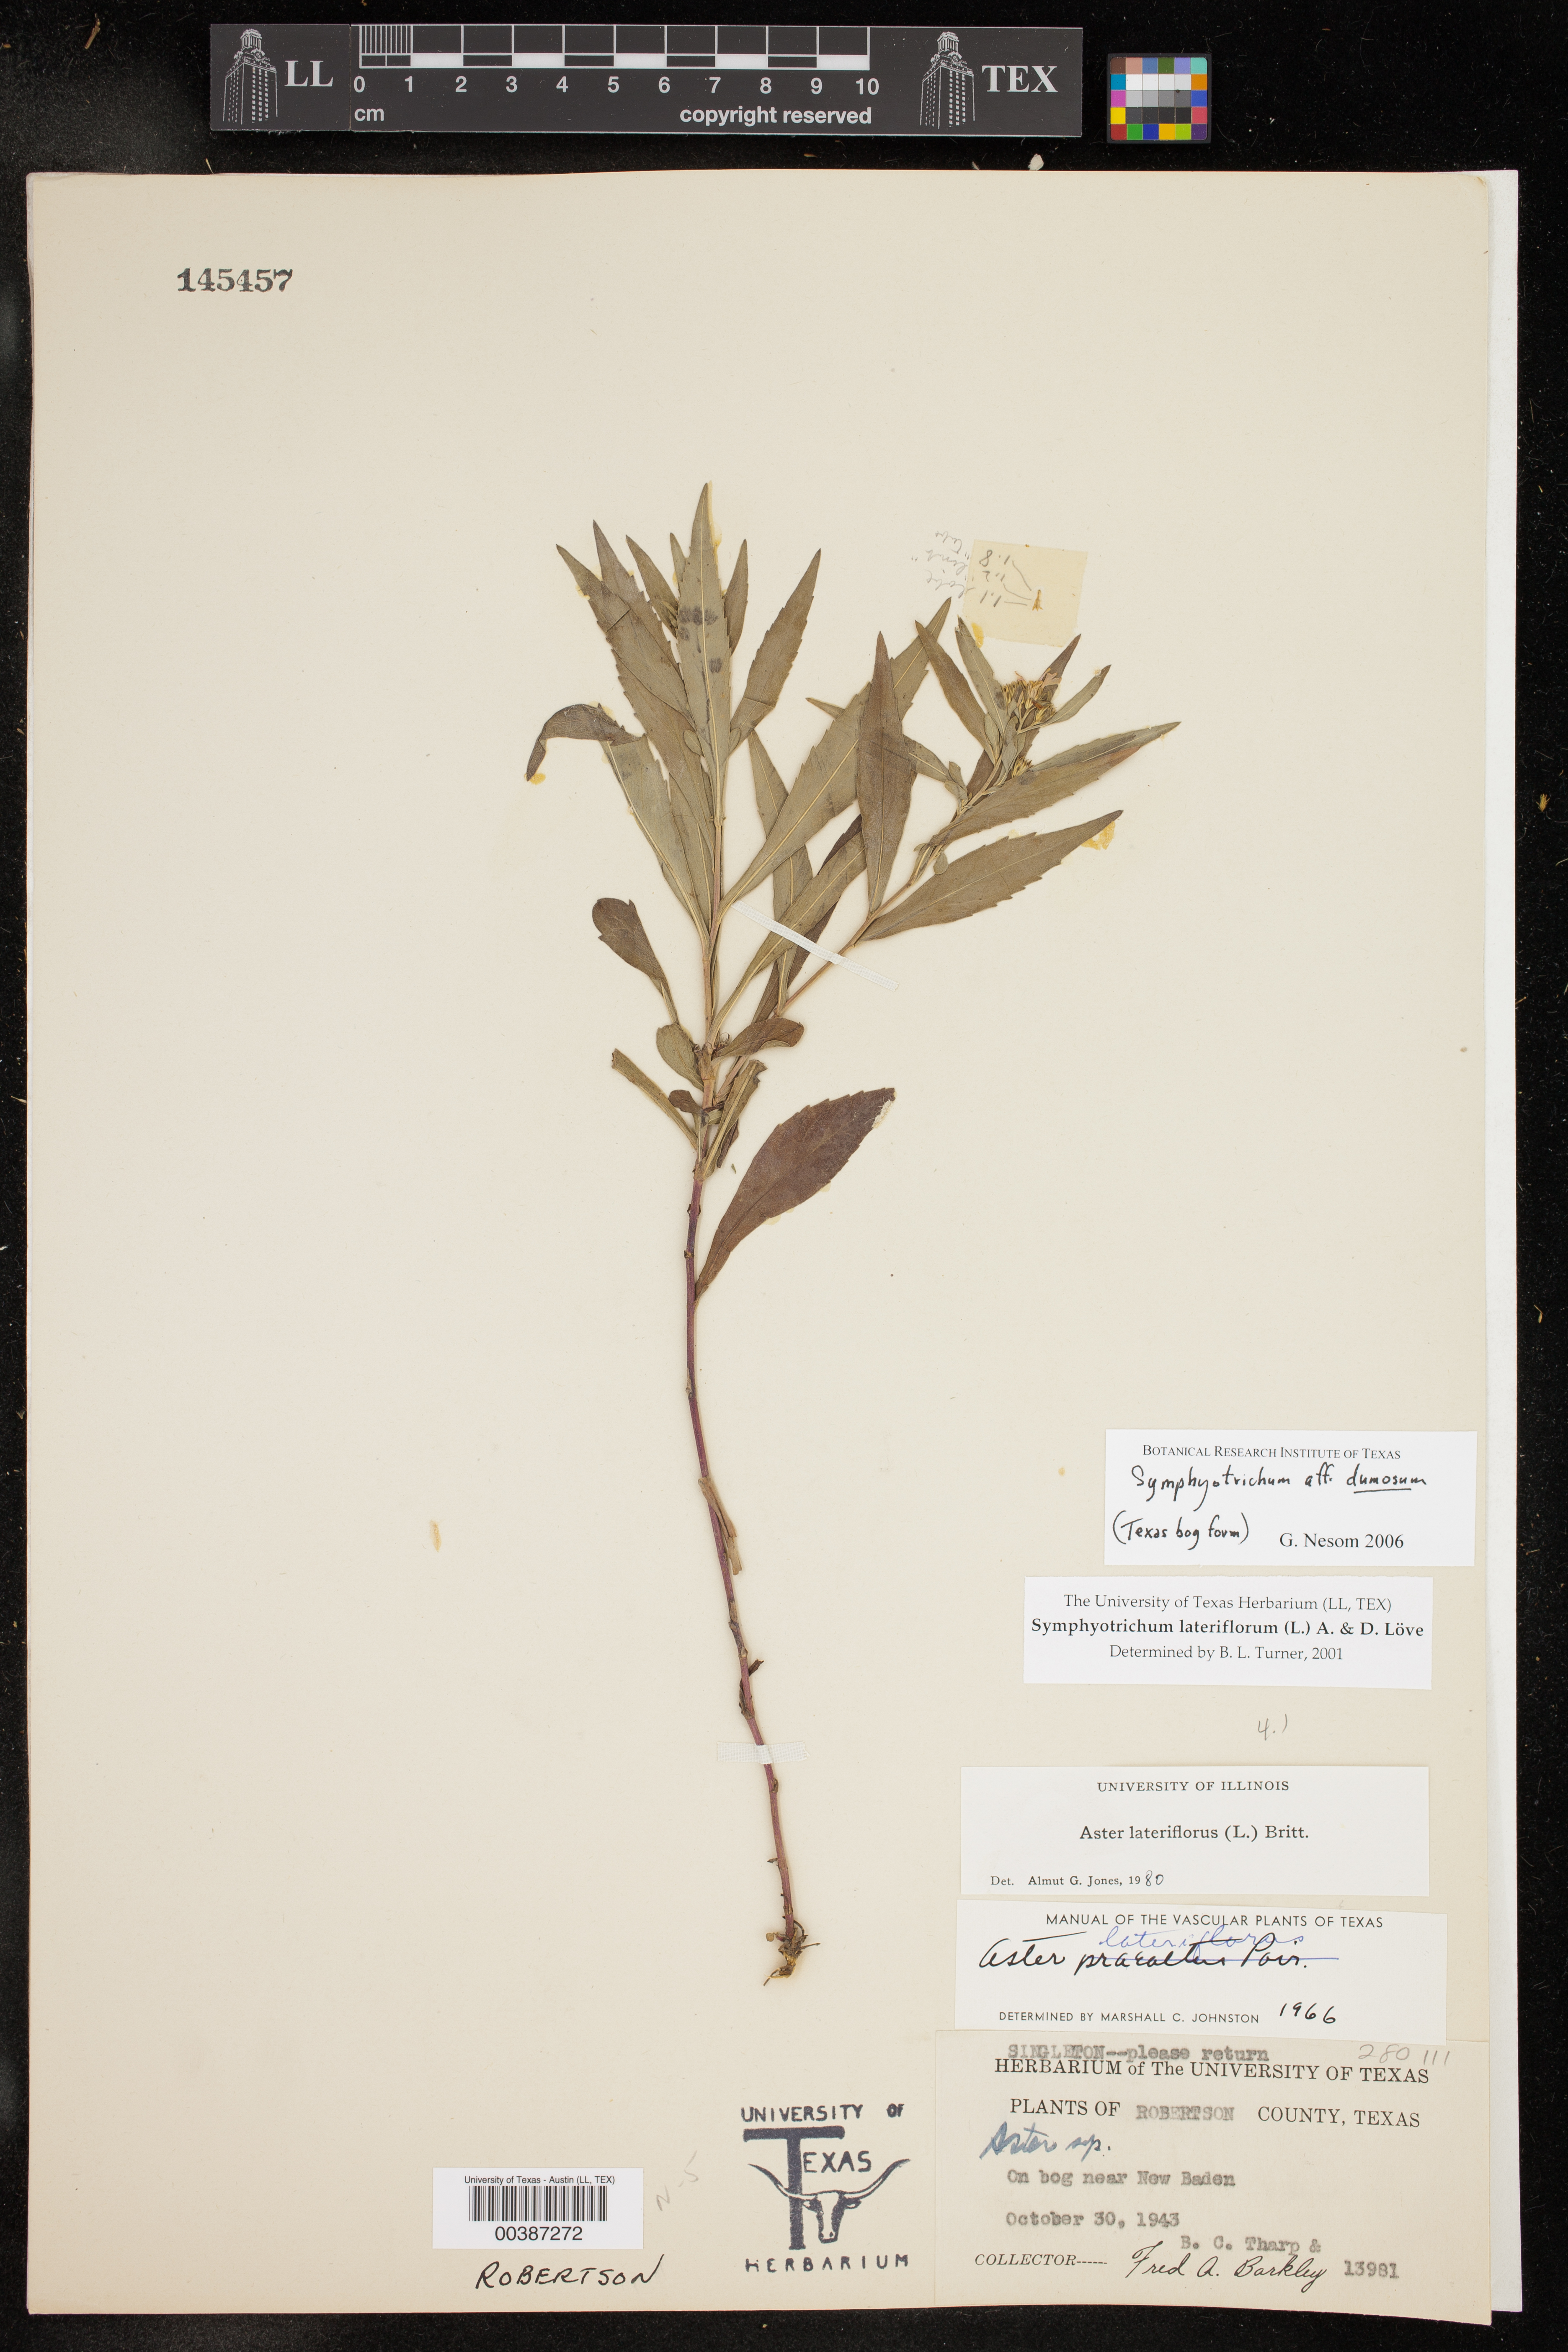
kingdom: Plantae
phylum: Tracheophyta
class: Magnoliopsida
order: Asterales
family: Asteraceae
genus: Symphyotrichum
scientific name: Symphyotrichum lateriflorum
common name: Calico aster
